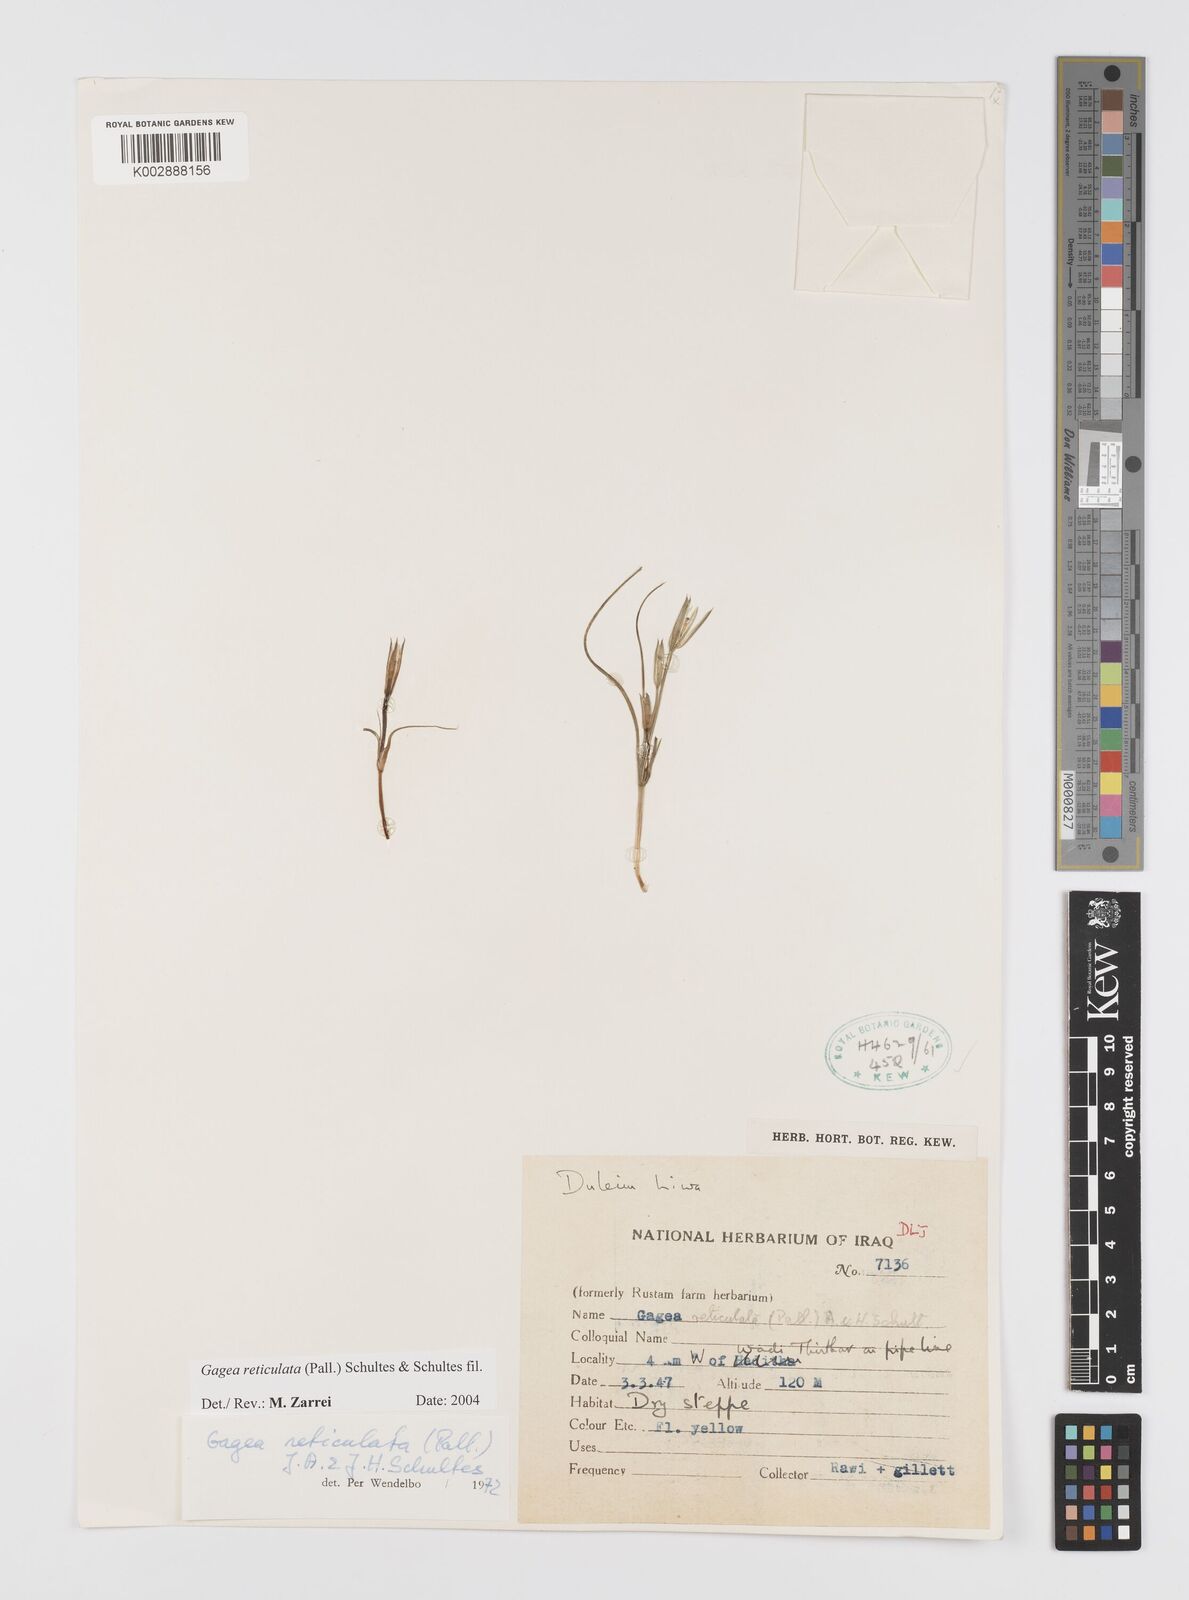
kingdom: Plantae
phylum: Tracheophyta
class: Liliopsida
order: Liliales
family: Liliaceae
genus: Gagea
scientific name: Gagea reticulata
